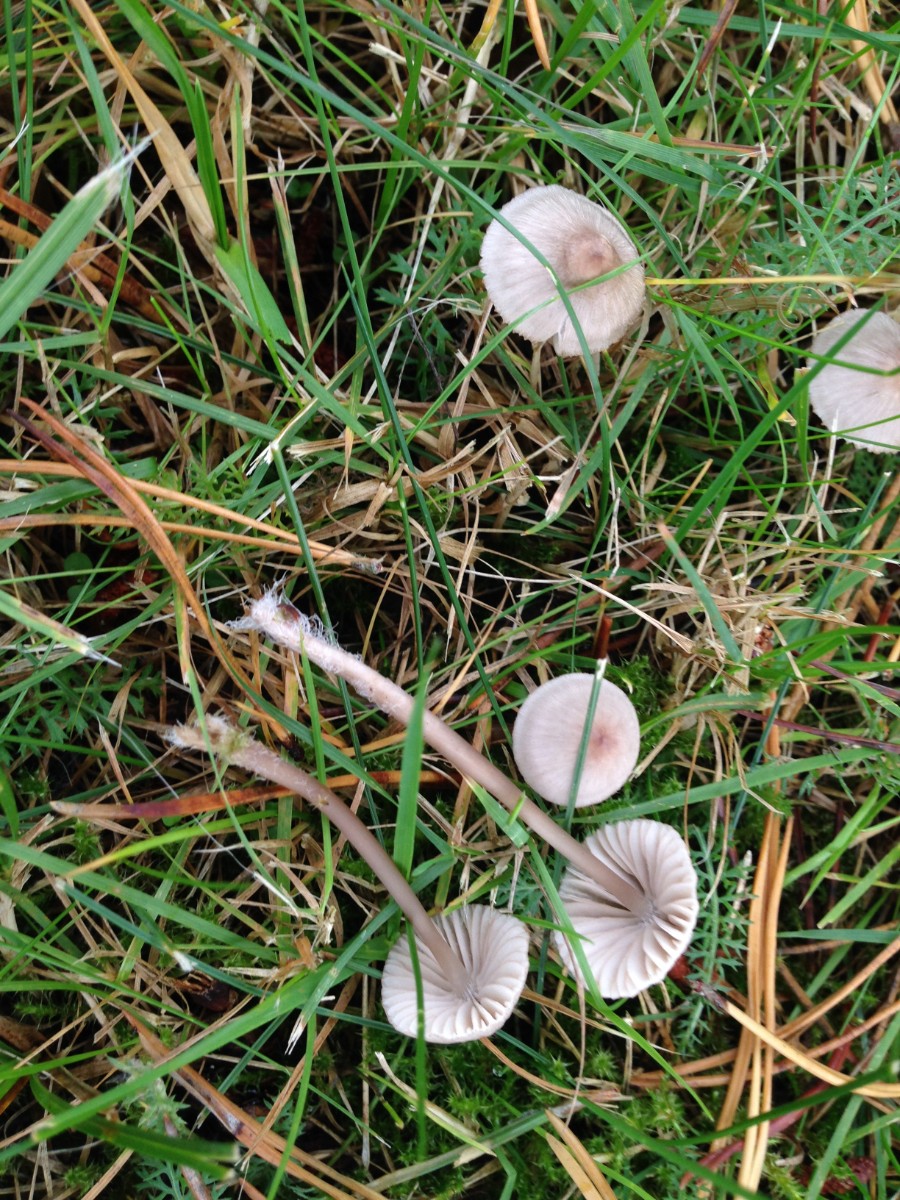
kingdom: Fungi
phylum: Basidiomycota
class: Agaricomycetes
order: Agaricales
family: Mycenaceae
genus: Mycena
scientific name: Mycena capillaripes
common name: nåle-huesvamp
